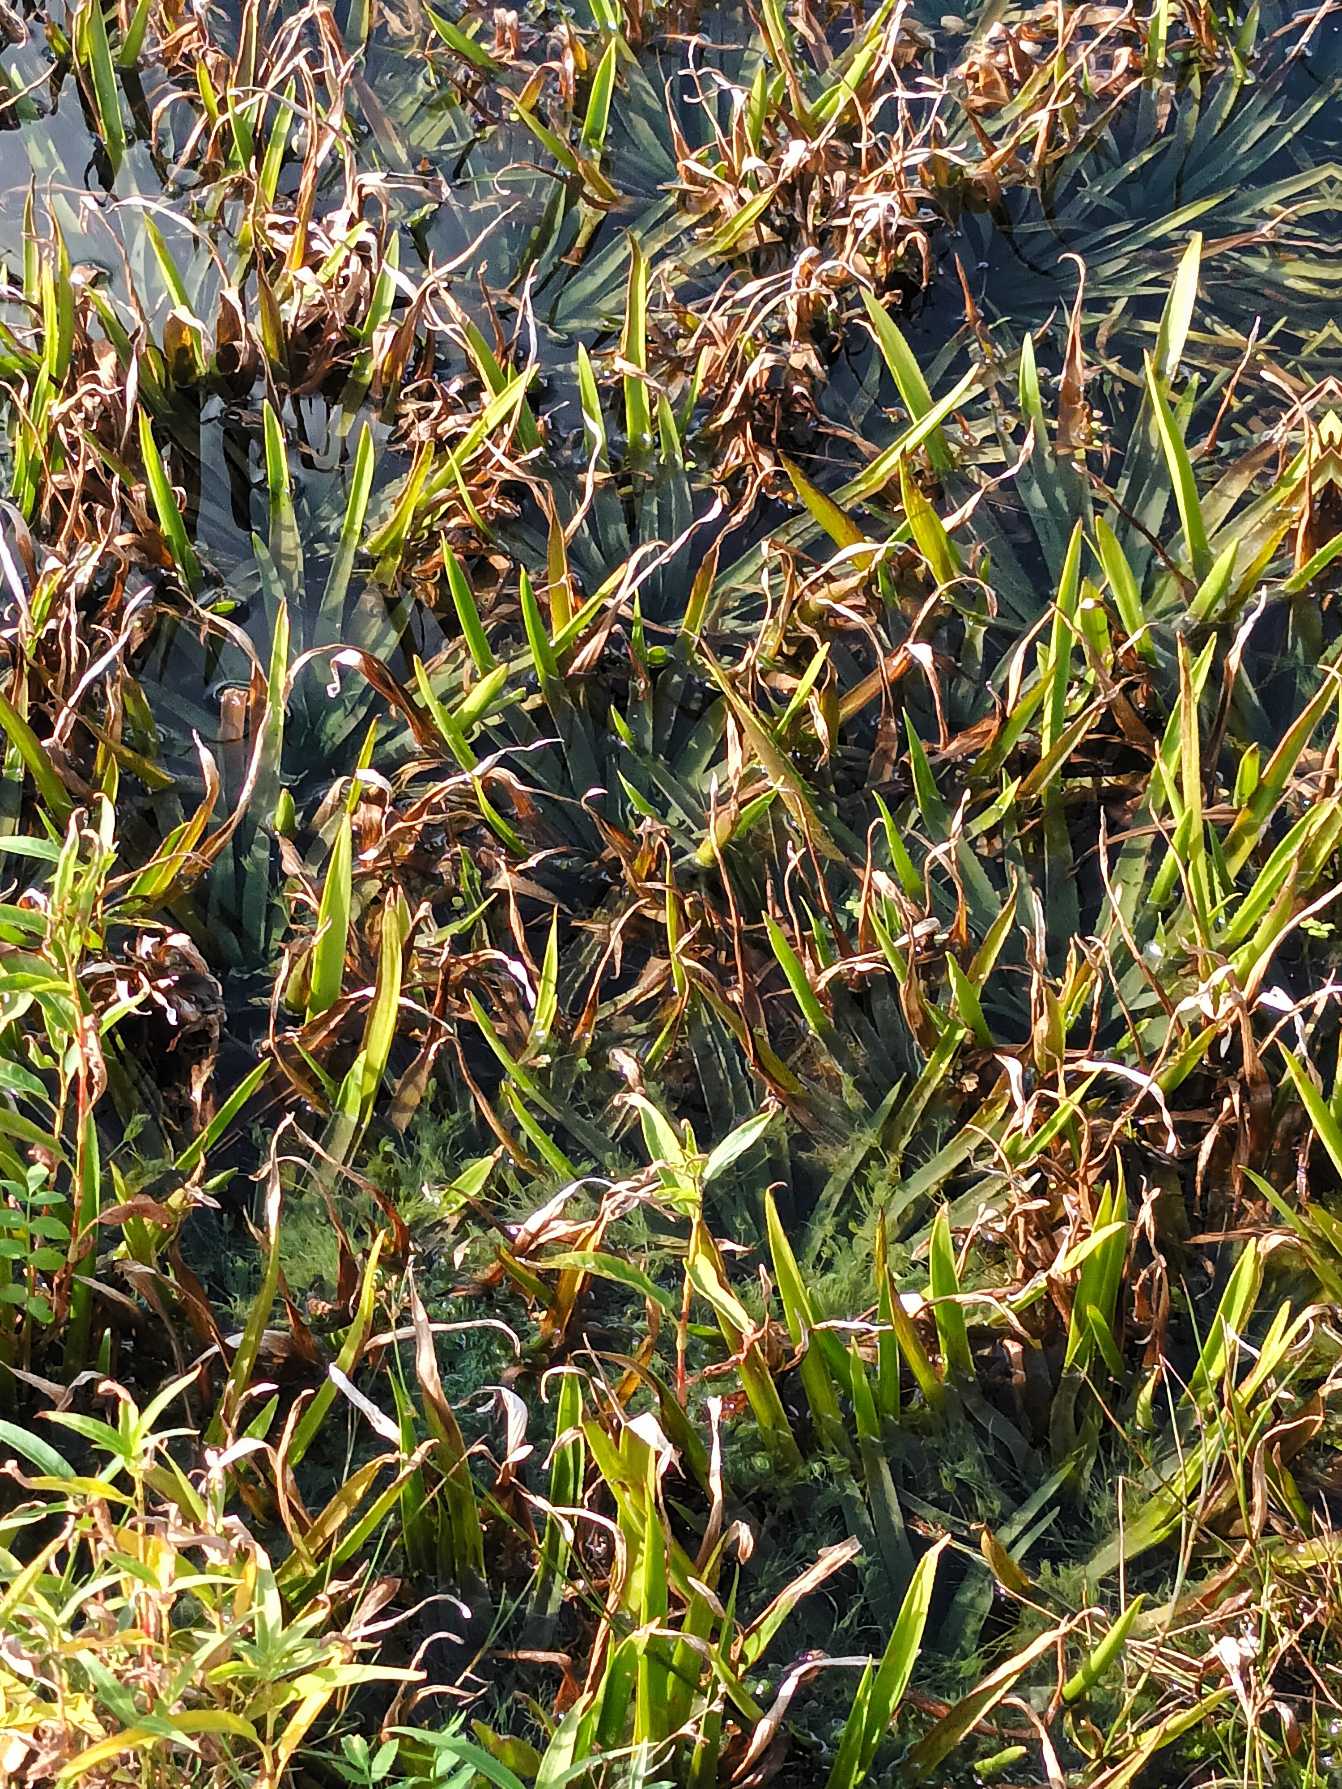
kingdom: Plantae
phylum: Tracheophyta
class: Liliopsida
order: Alismatales
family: Hydrocharitaceae
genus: Stratiotes
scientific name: Stratiotes aloides
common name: Krebseklo
